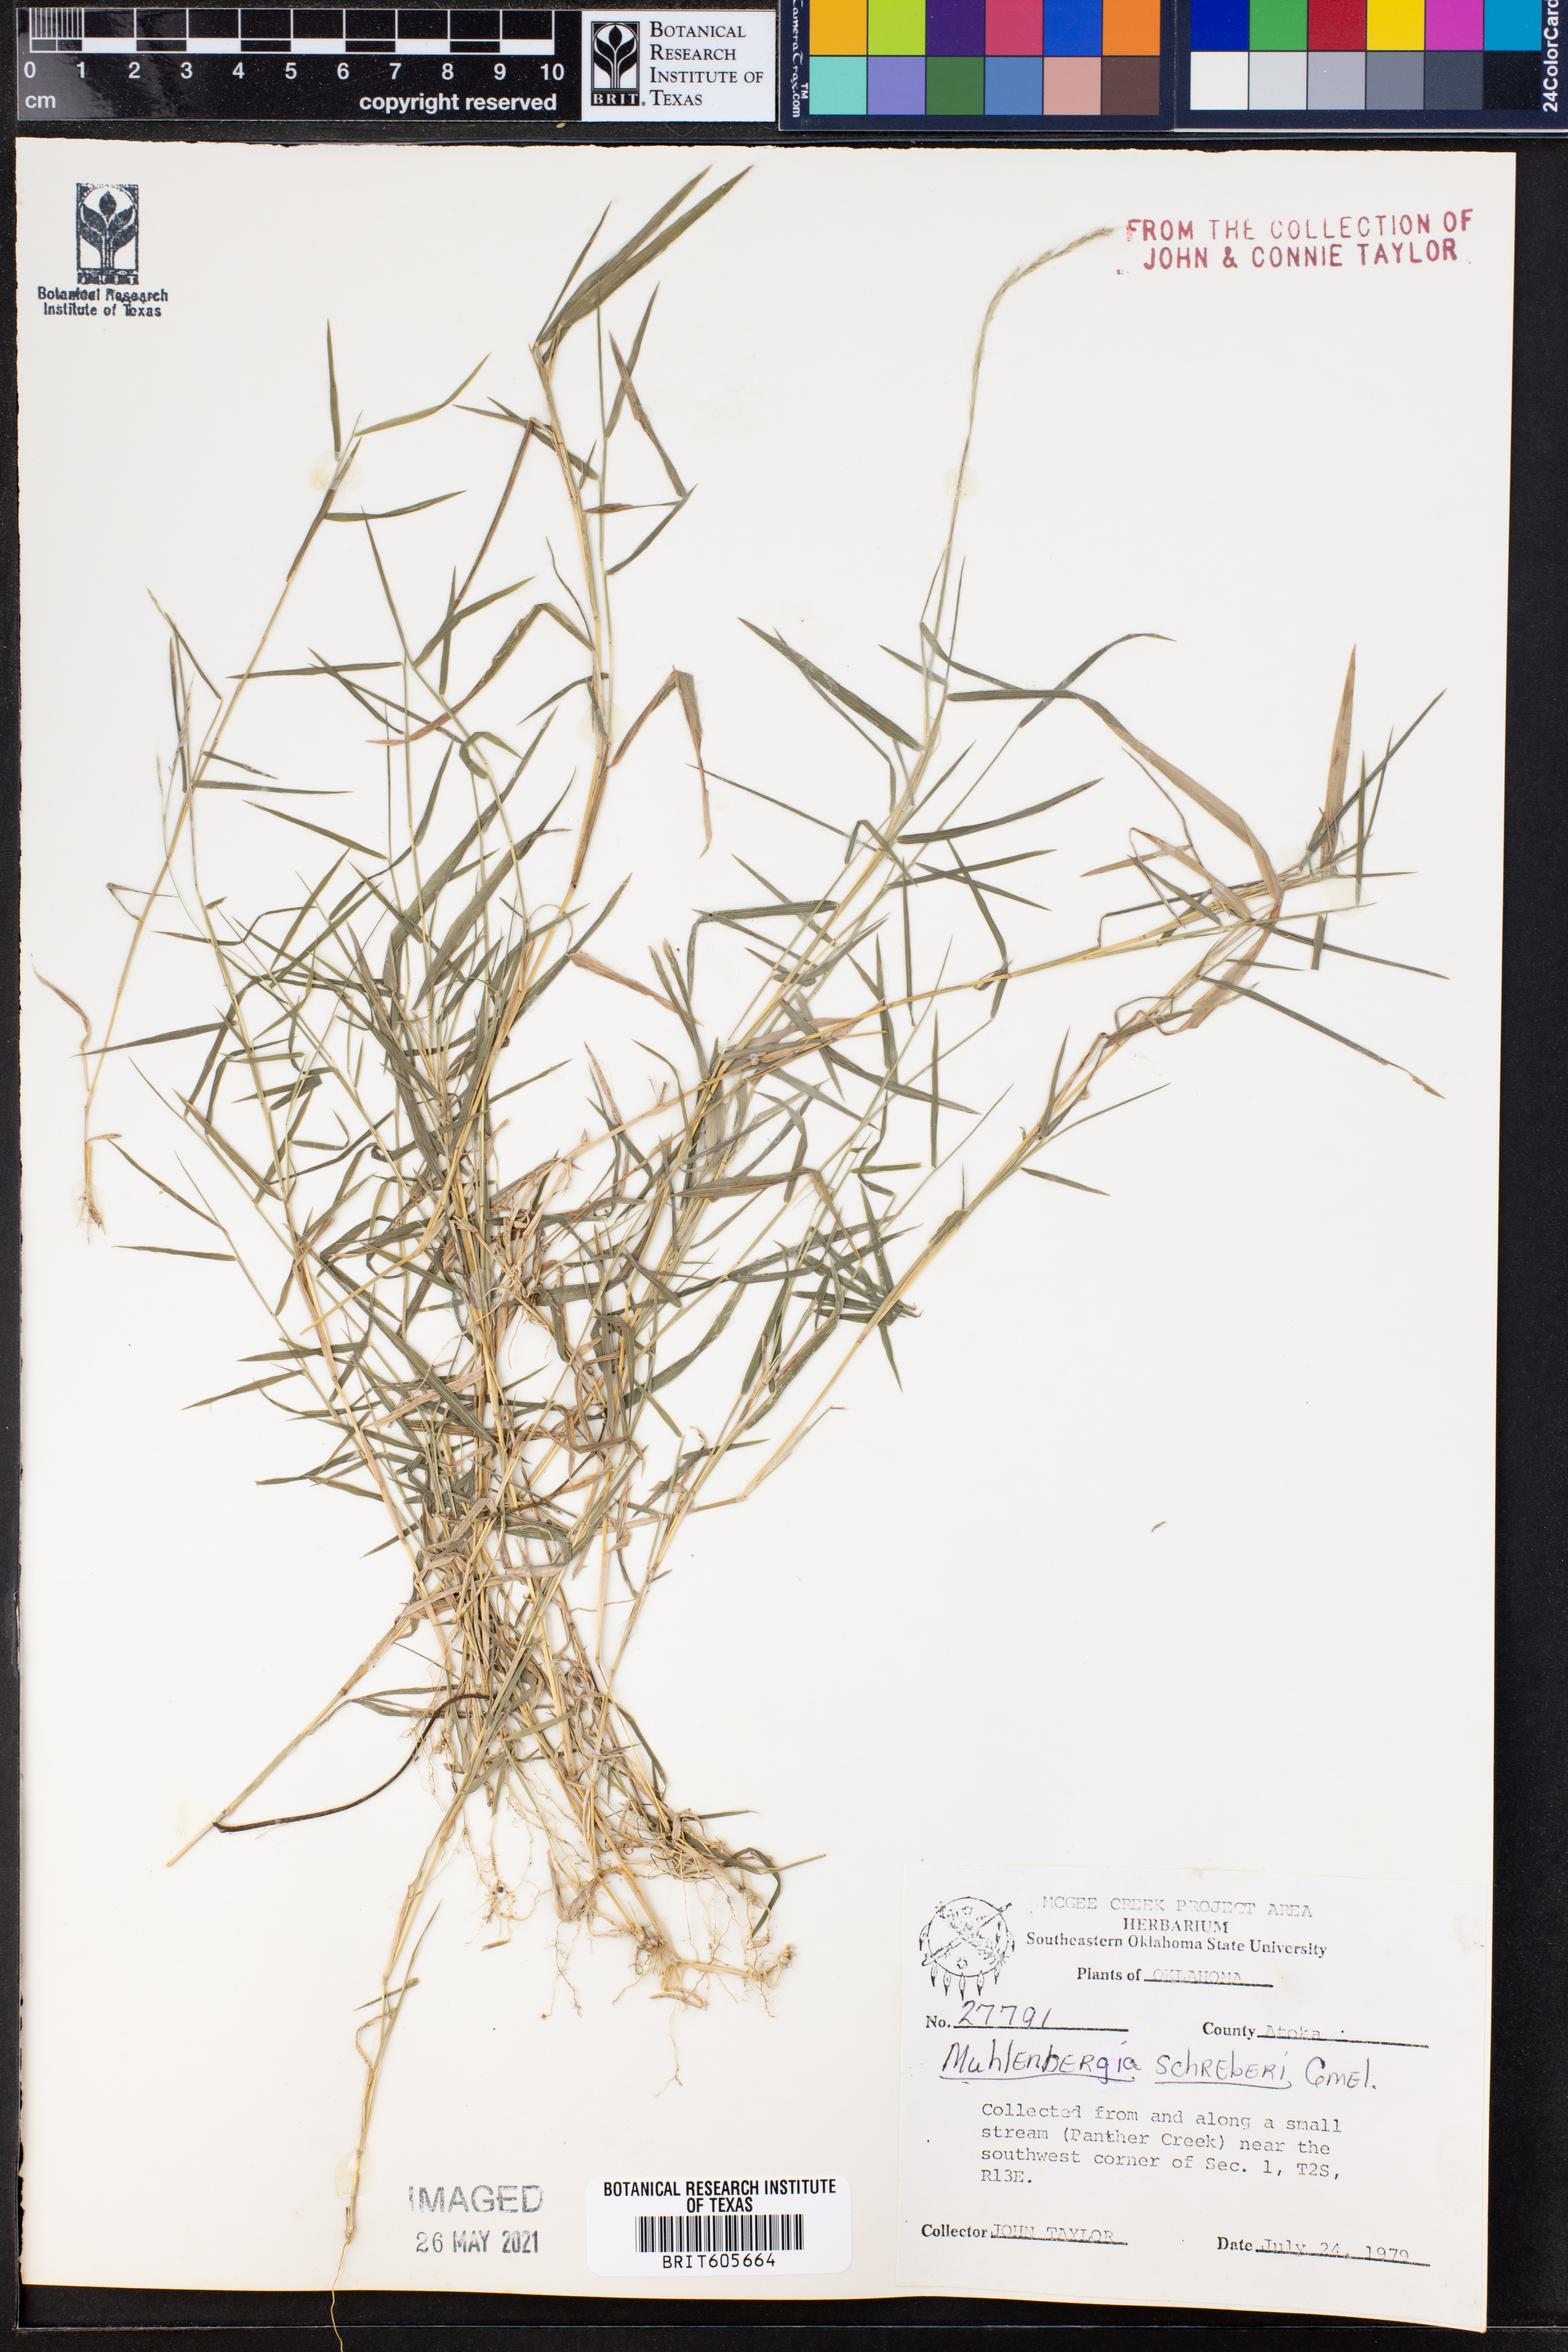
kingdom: Plantae
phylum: Tracheophyta
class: Liliopsida
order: Poales
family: Poaceae
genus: Muhlenbergia
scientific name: Muhlenbergia schreberi
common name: Nimblewill
